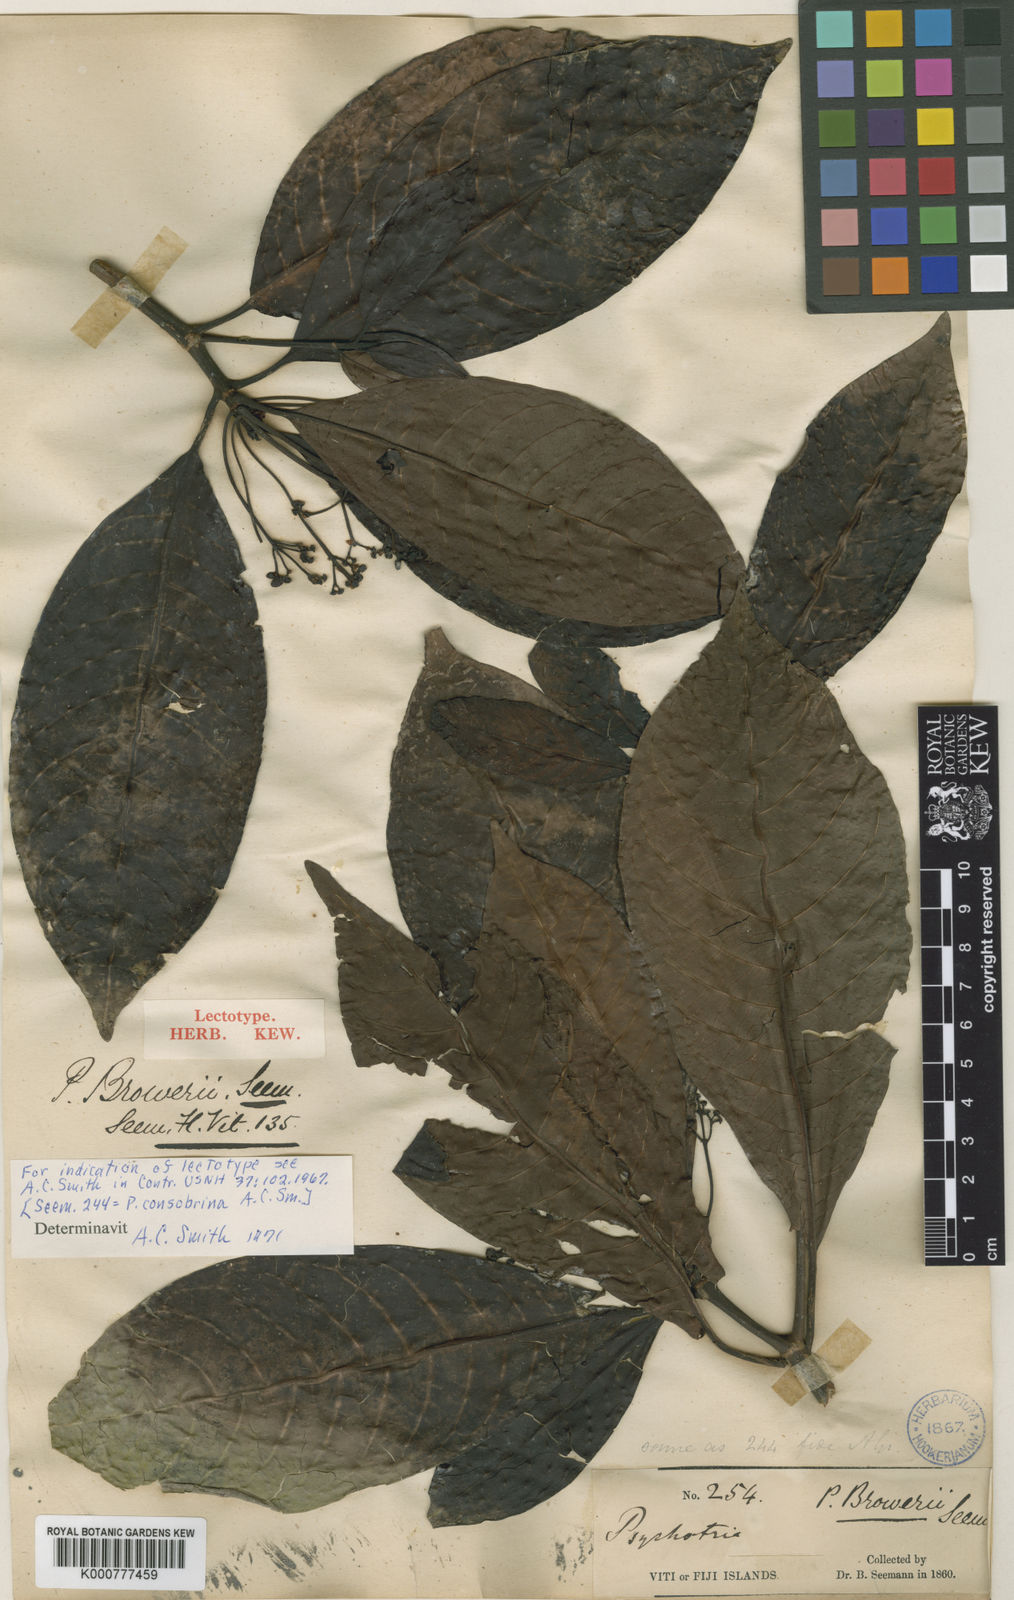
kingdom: Plantae
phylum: Tracheophyta
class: Magnoliopsida
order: Gentianales
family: Rubiaceae
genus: Psychotria
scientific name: Psychotria broweri
